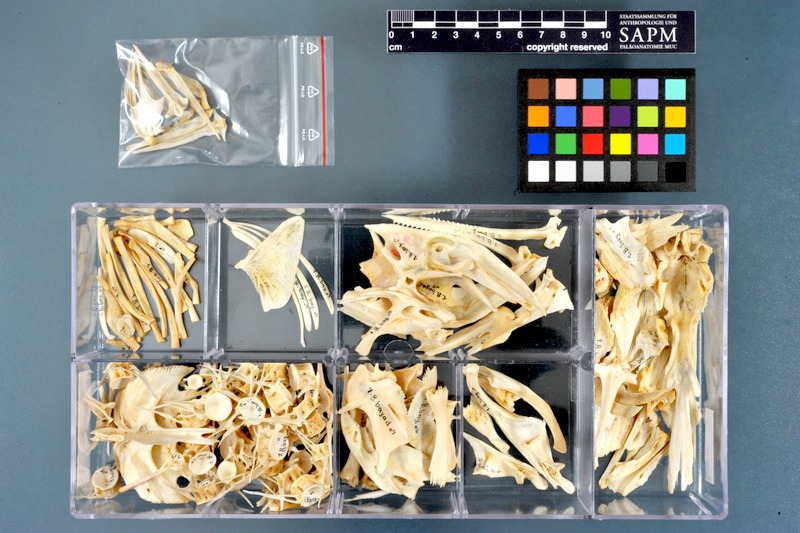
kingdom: Animalia
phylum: Chordata
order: Siluriformes
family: Bagridae
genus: Bagrus
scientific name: Bagrus bajad
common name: Bayad
